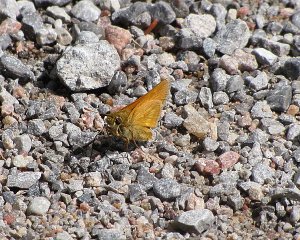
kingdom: Animalia
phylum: Arthropoda
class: Insecta
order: Lepidoptera
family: Hesperiidae
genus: Hesperia
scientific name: Hesperia sassacus
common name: Sassacus Skipper
